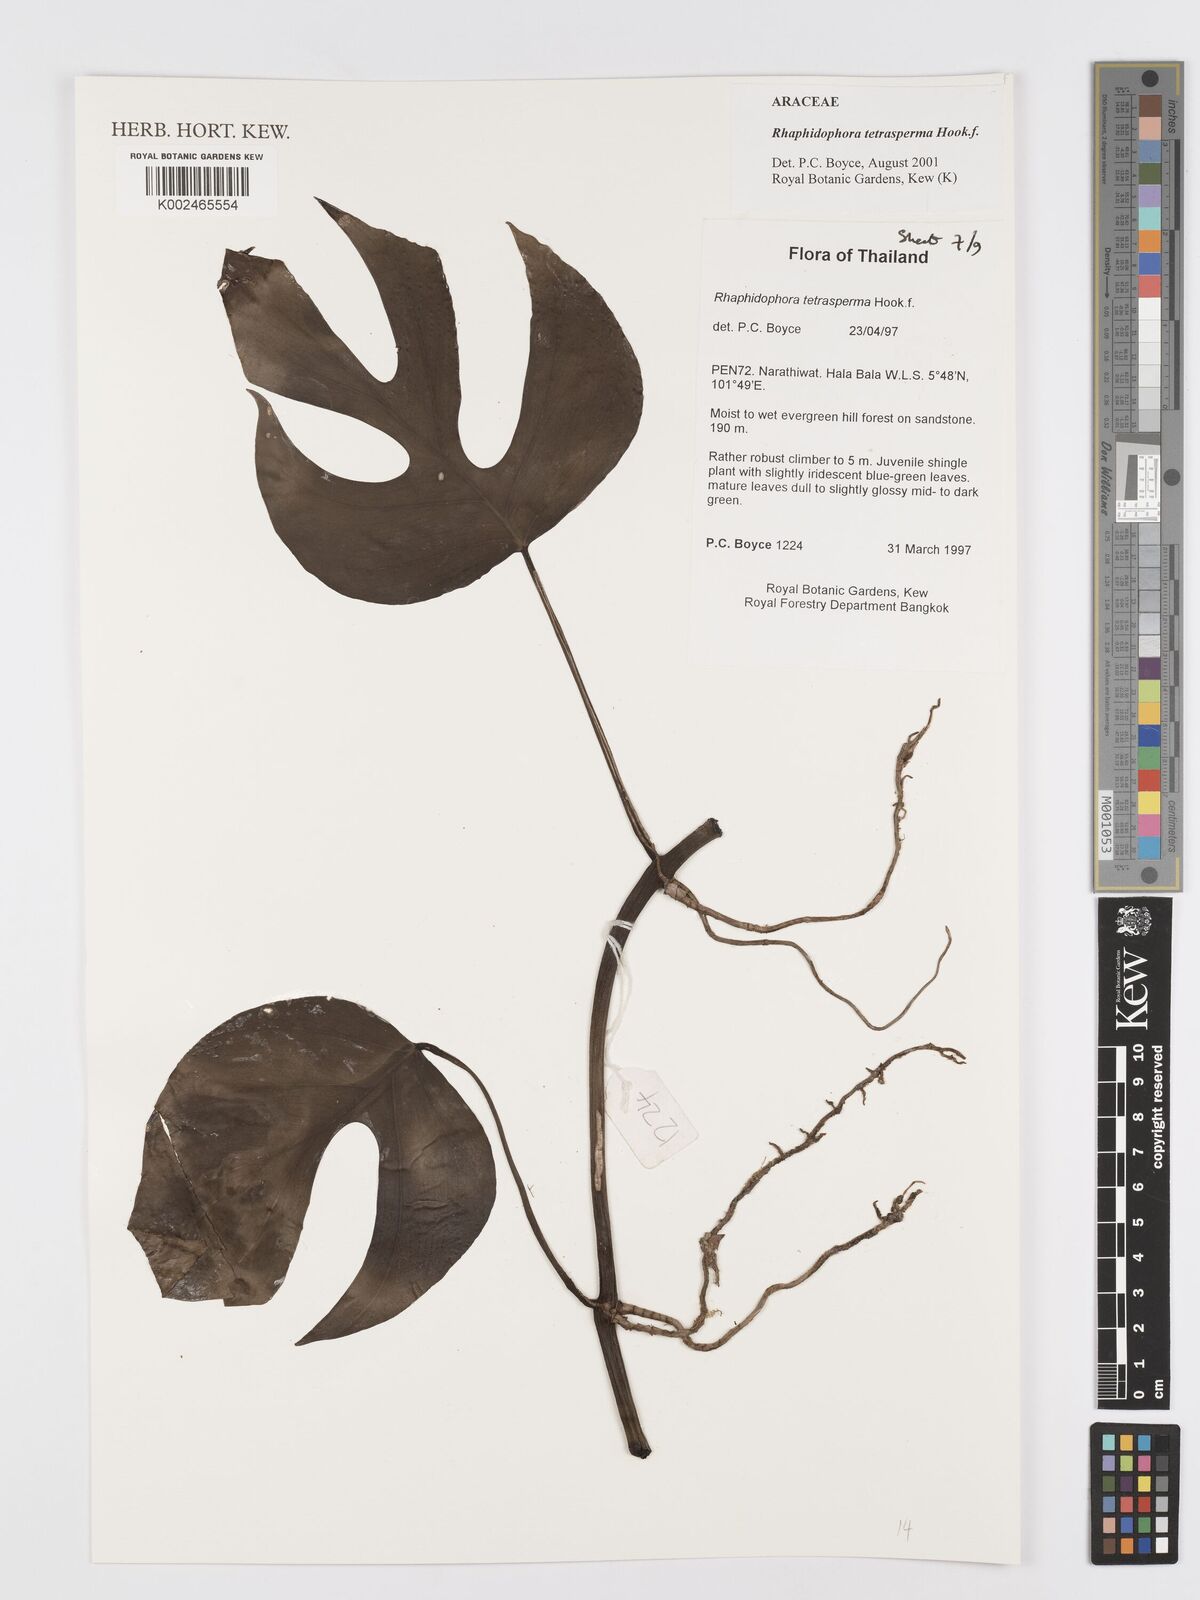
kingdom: Plantae
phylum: Tracheophyta
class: Liliopsida
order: Alismatales
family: Araceae
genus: Rhaphidophora
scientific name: Rhaphidophora tetrasperma
